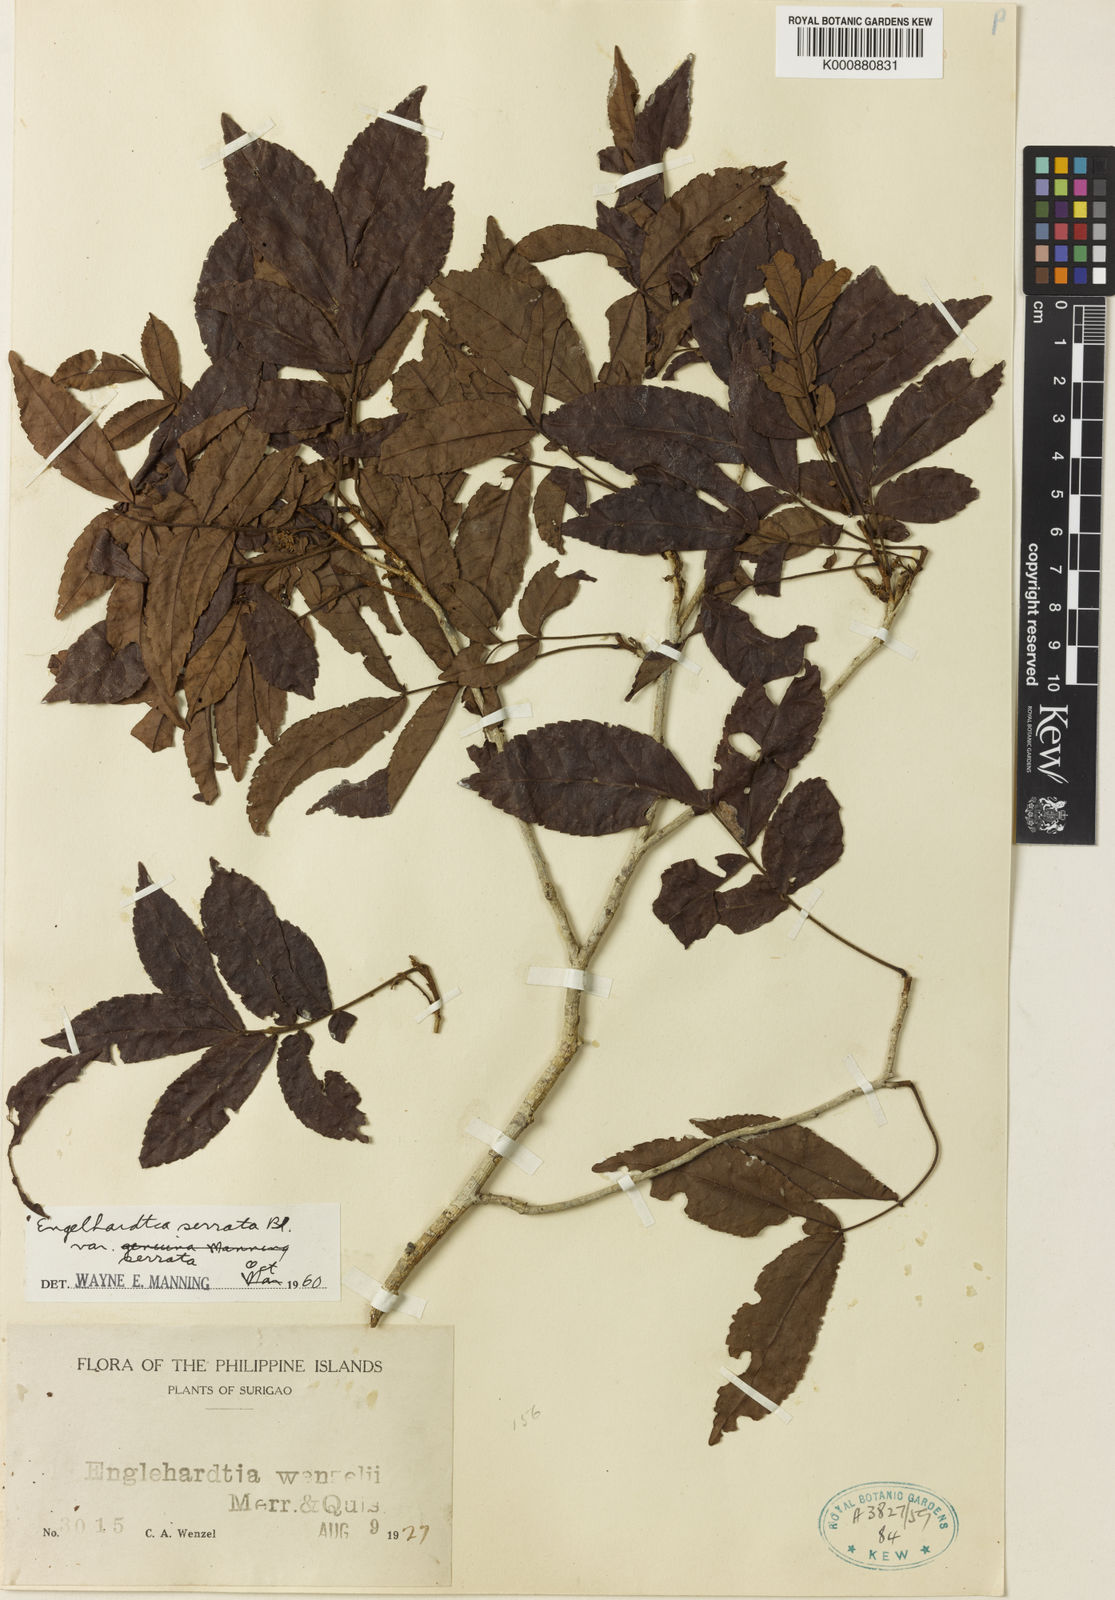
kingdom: Plantae
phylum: Tracheophyta
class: Magnoliopsida
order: Fagales
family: Juglandaceae
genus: Engelhardia
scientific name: Engelhardia serrata
